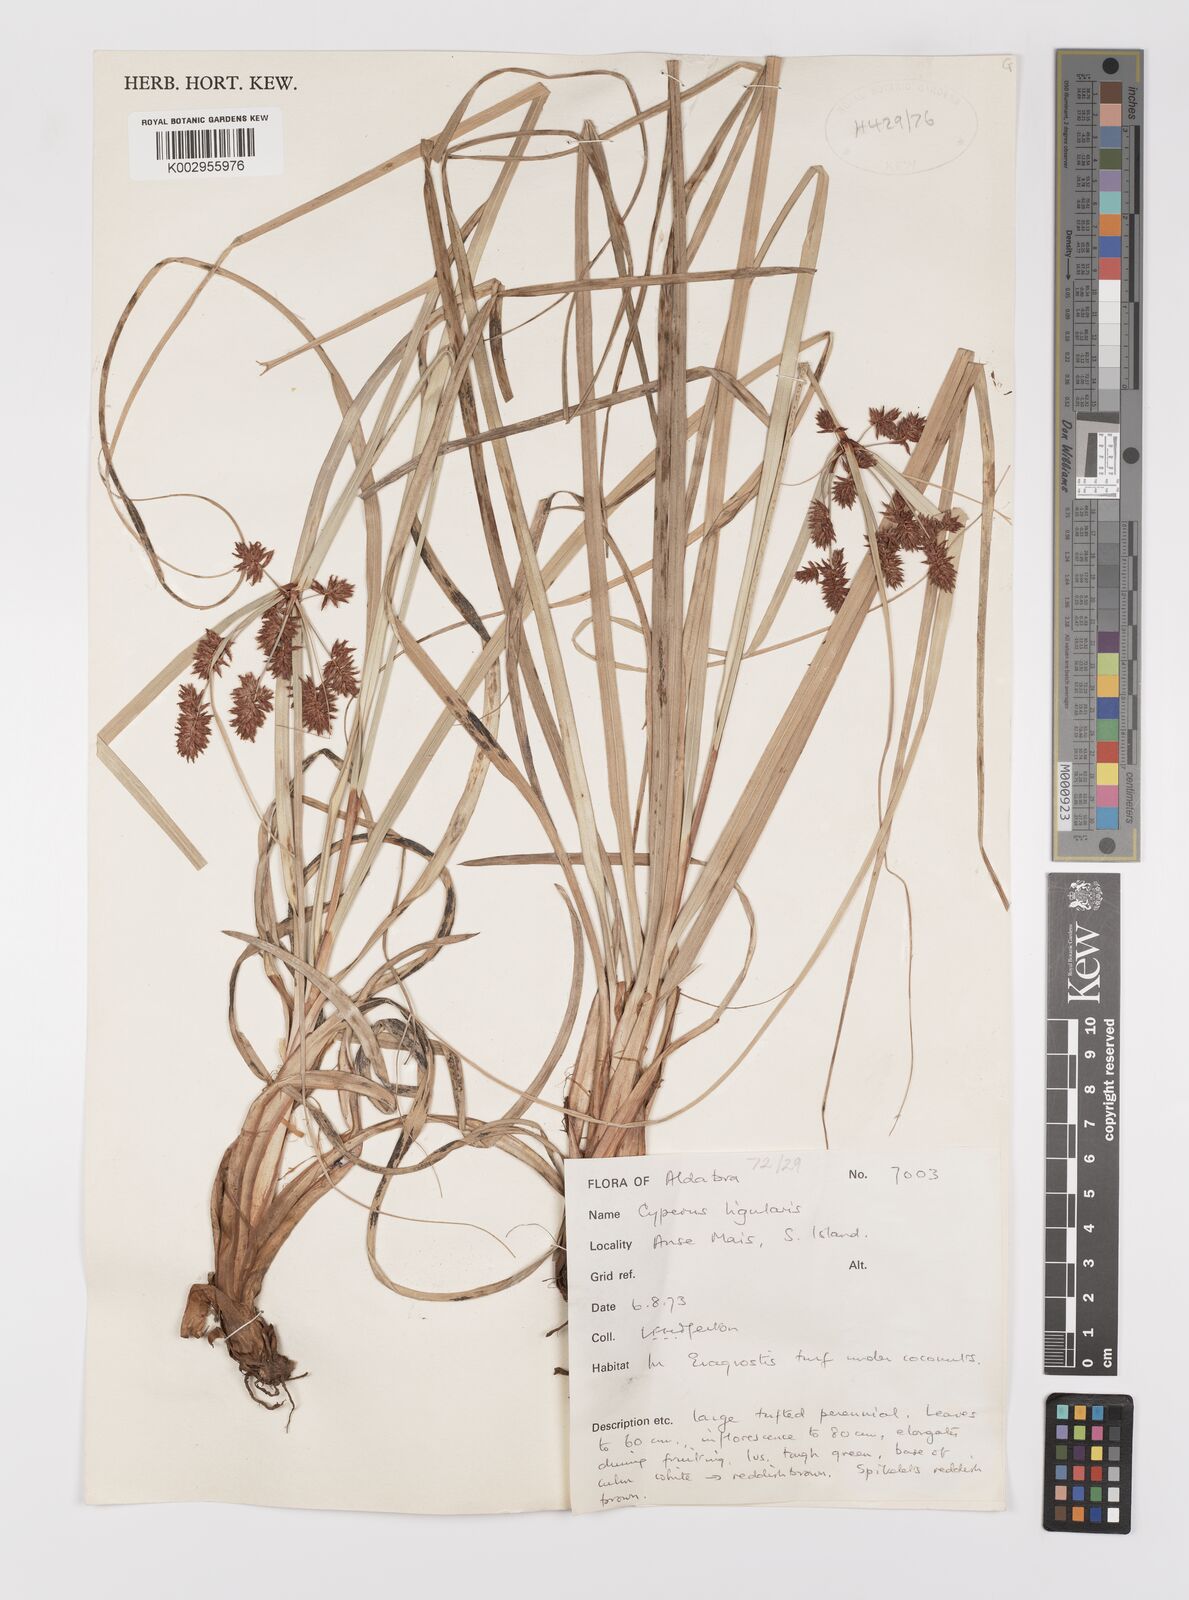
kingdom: Plantae
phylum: Tracheophyta
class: Liliopsida
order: Poales
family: Cyperaceae
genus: Cyperus
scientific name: Cyperus ligularis
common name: Swamp flat sedge
